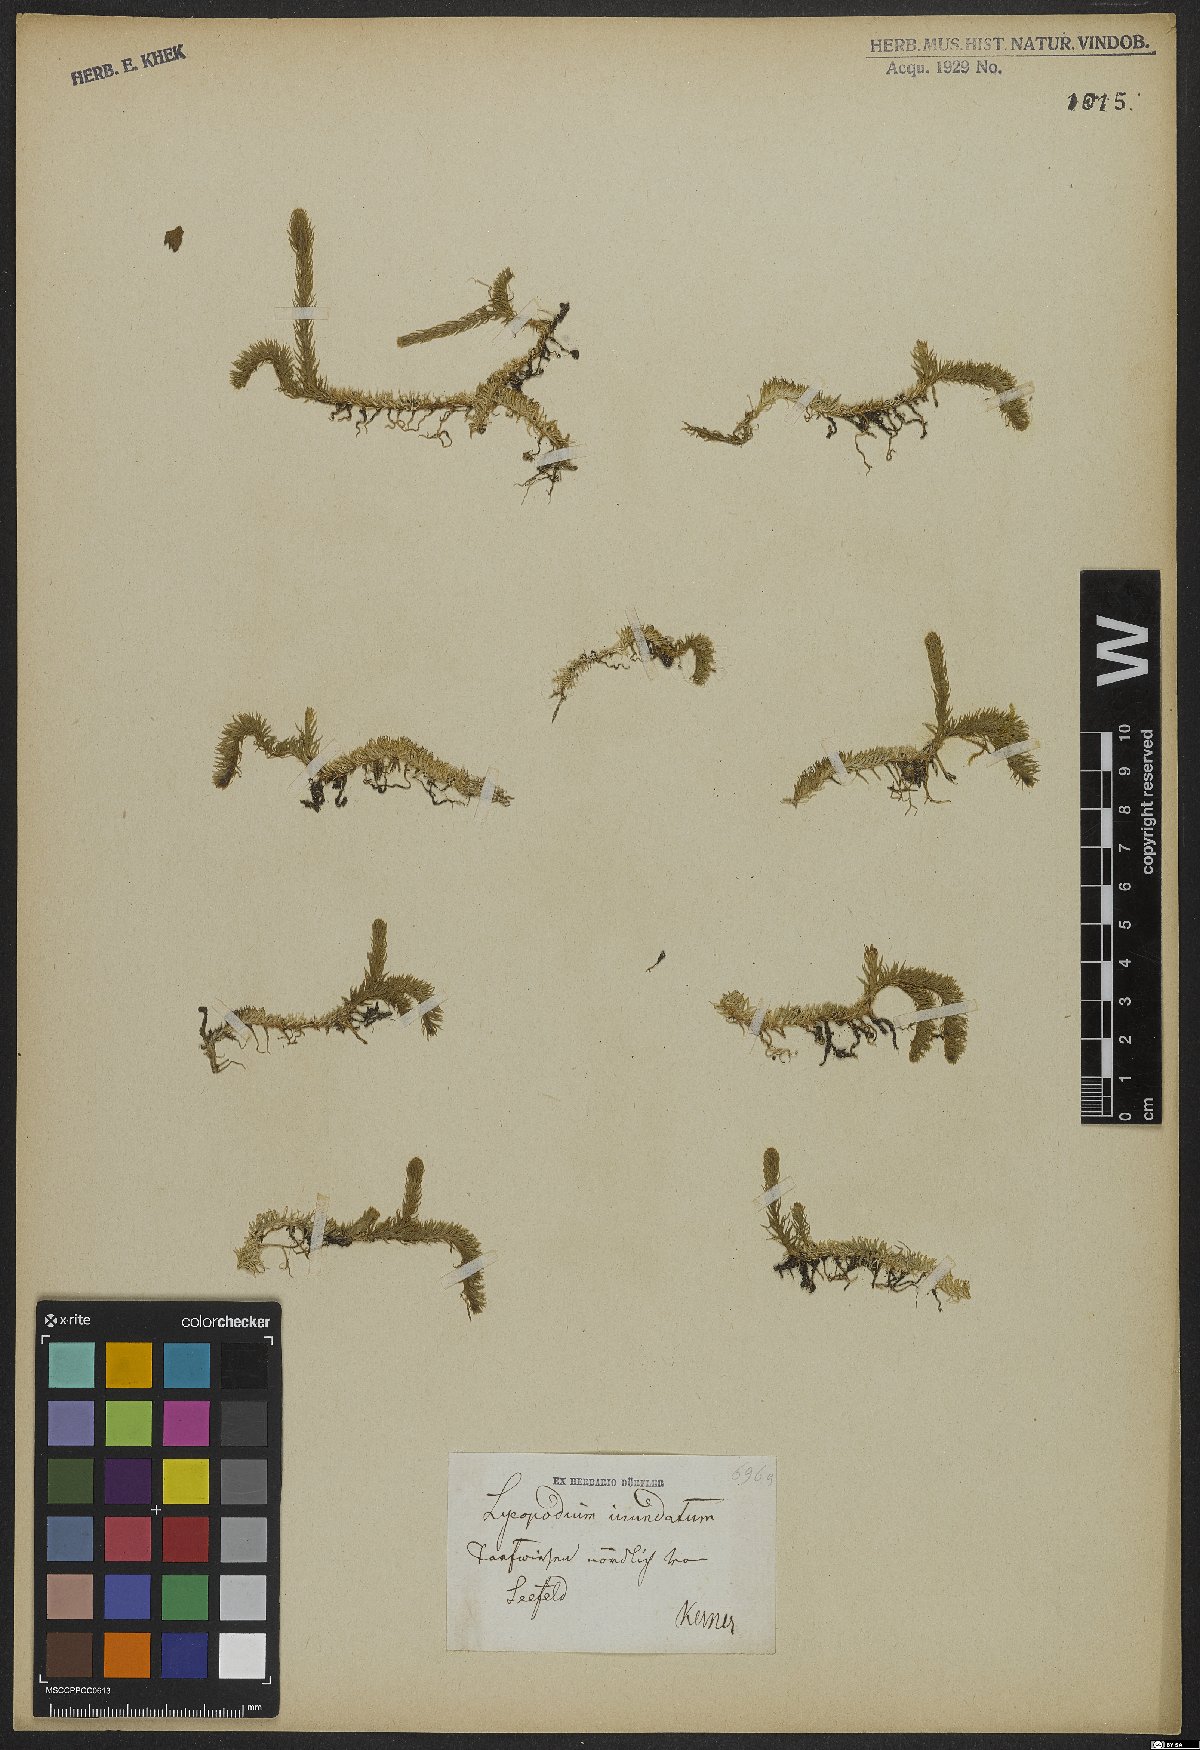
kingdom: Plantae
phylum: Tracheophyta
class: Lycopodiopsida
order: Lycopodiales
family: Lycopodiaceae
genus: Lycopodiella
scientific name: Lycopodiella inundata
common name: Marsh clubmoss
